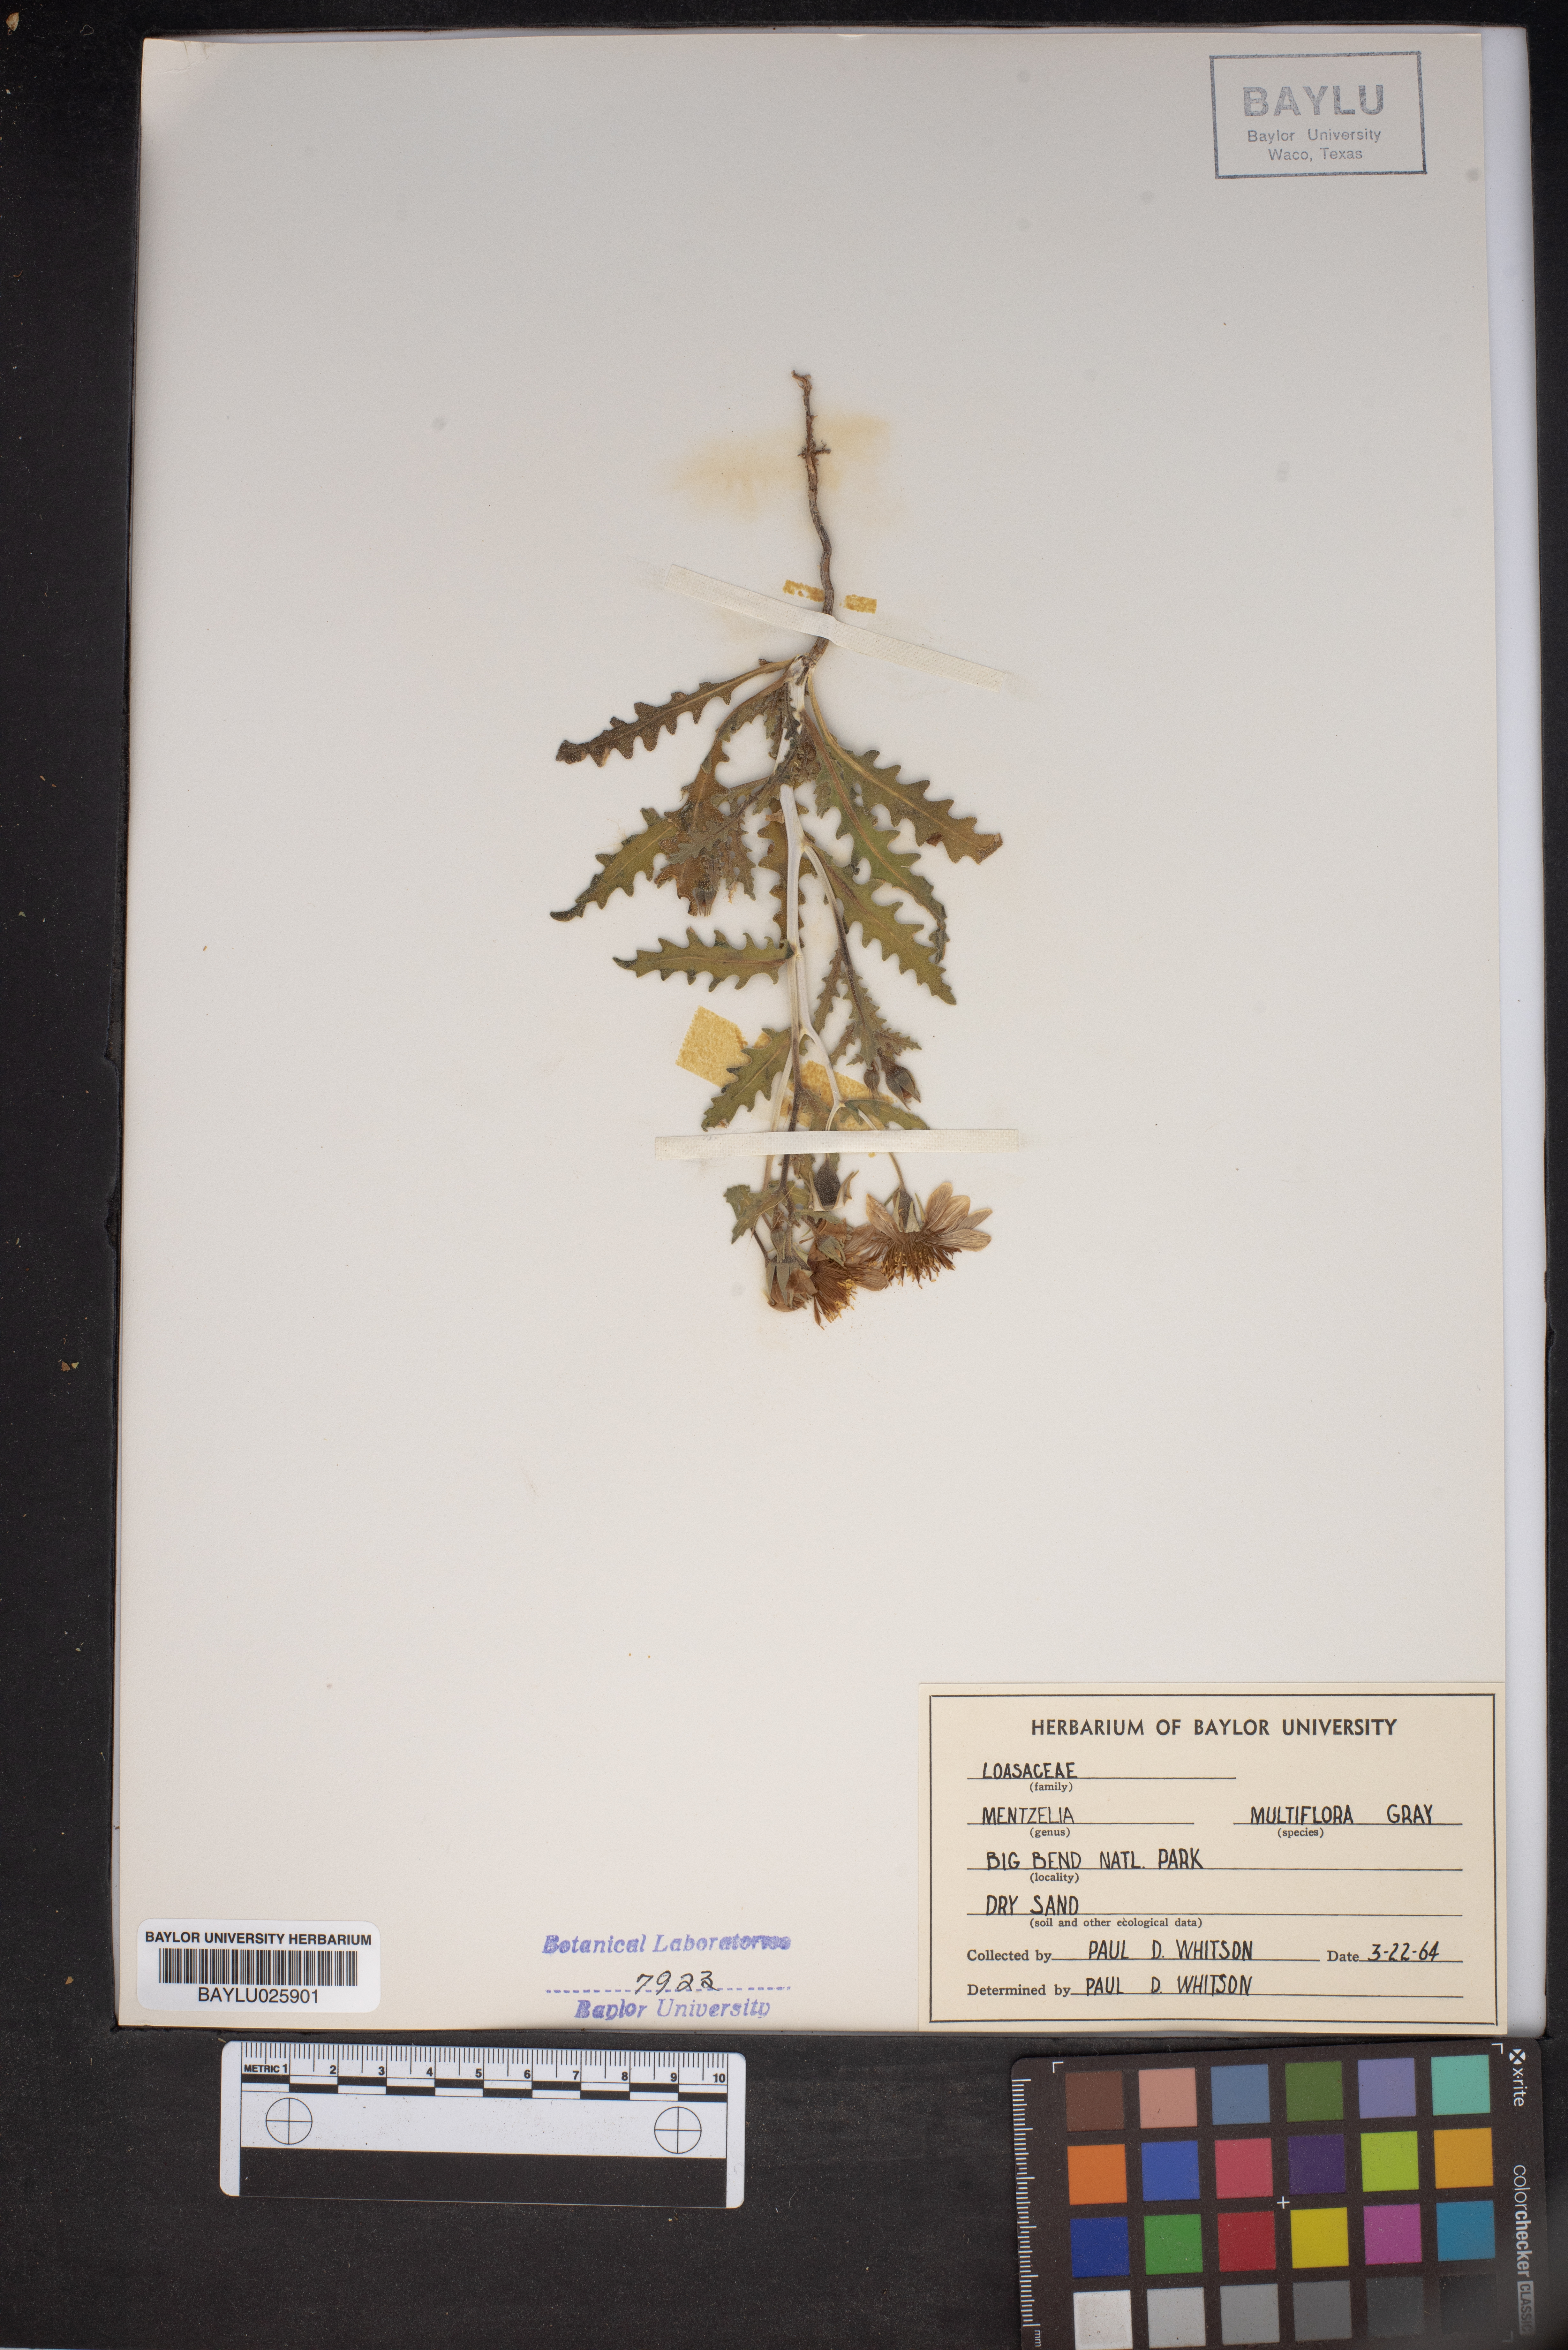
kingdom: Plantae
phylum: Tracheophyta
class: Magnoliopsida
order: Cornales
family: Loasaceae
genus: Mentzelia
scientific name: Mentzelia multiflora
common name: Adonis blazingstar
